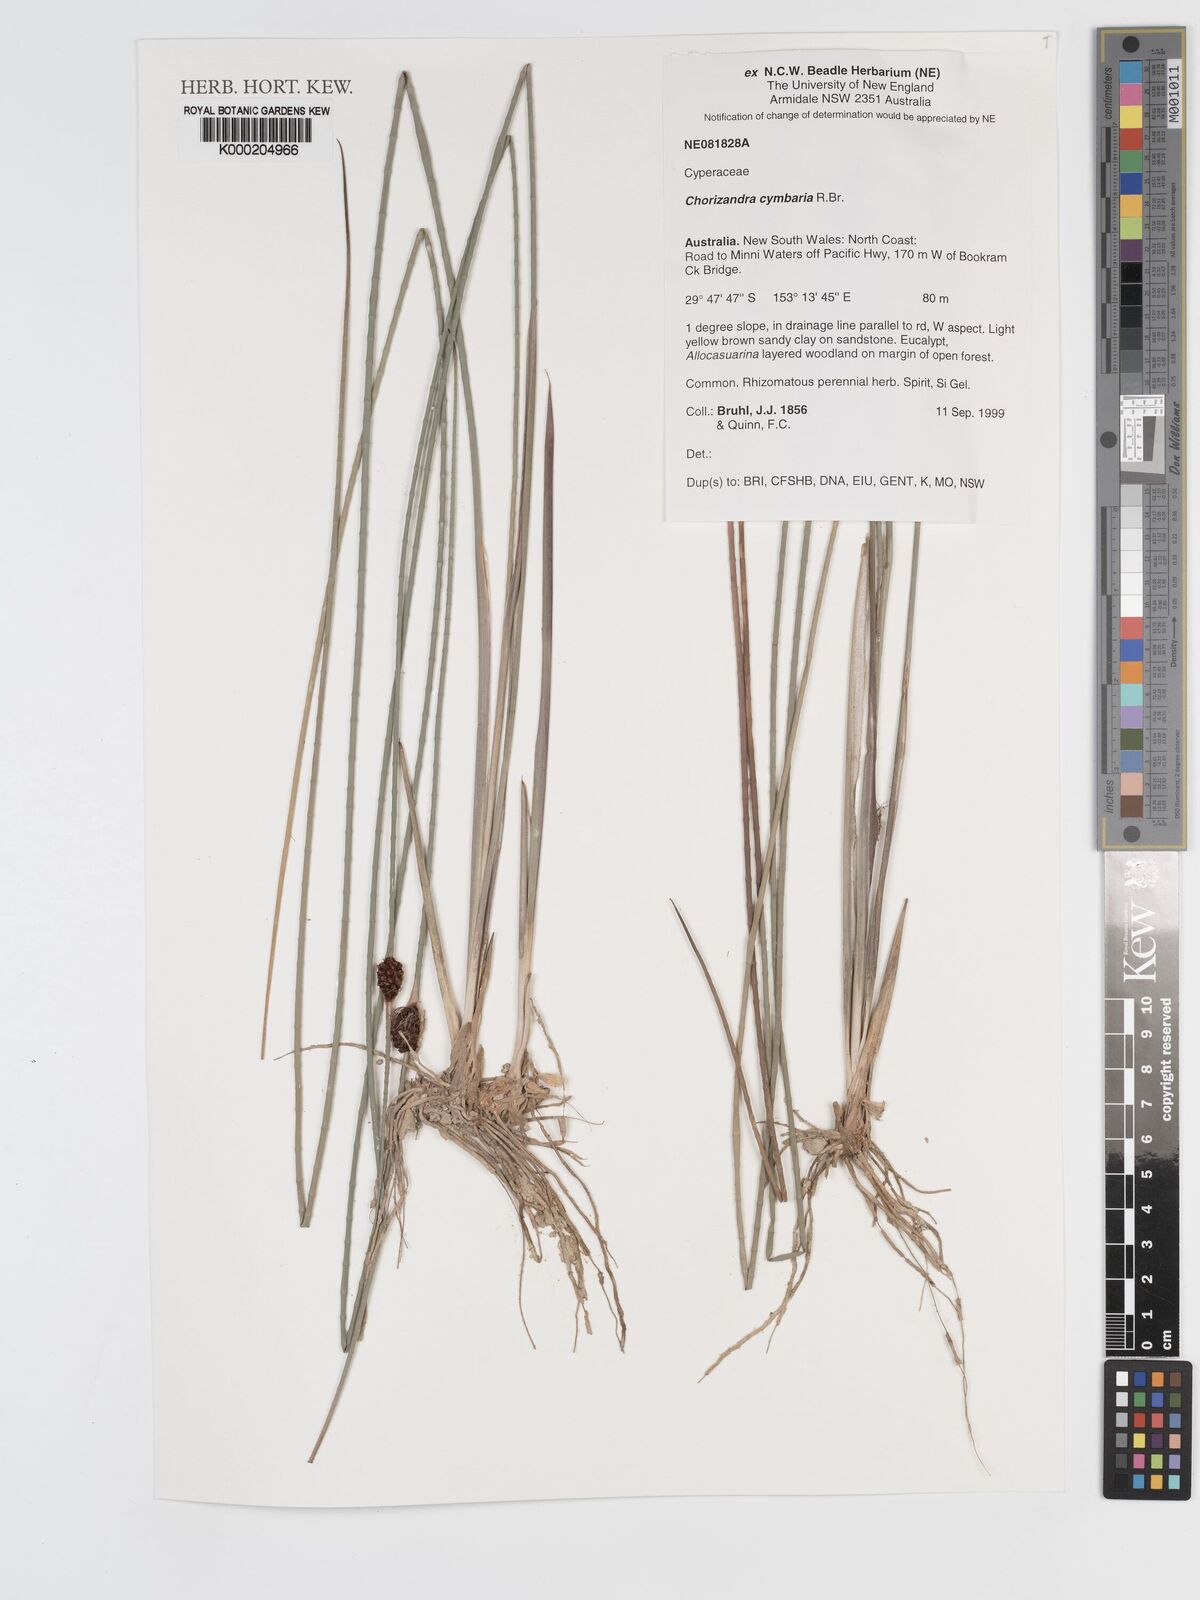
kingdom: Plantae
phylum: Tracheophyta
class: Liliopsida
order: Poales
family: Cyperaceae
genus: Chorizandra
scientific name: Chorizandra cymbaria
